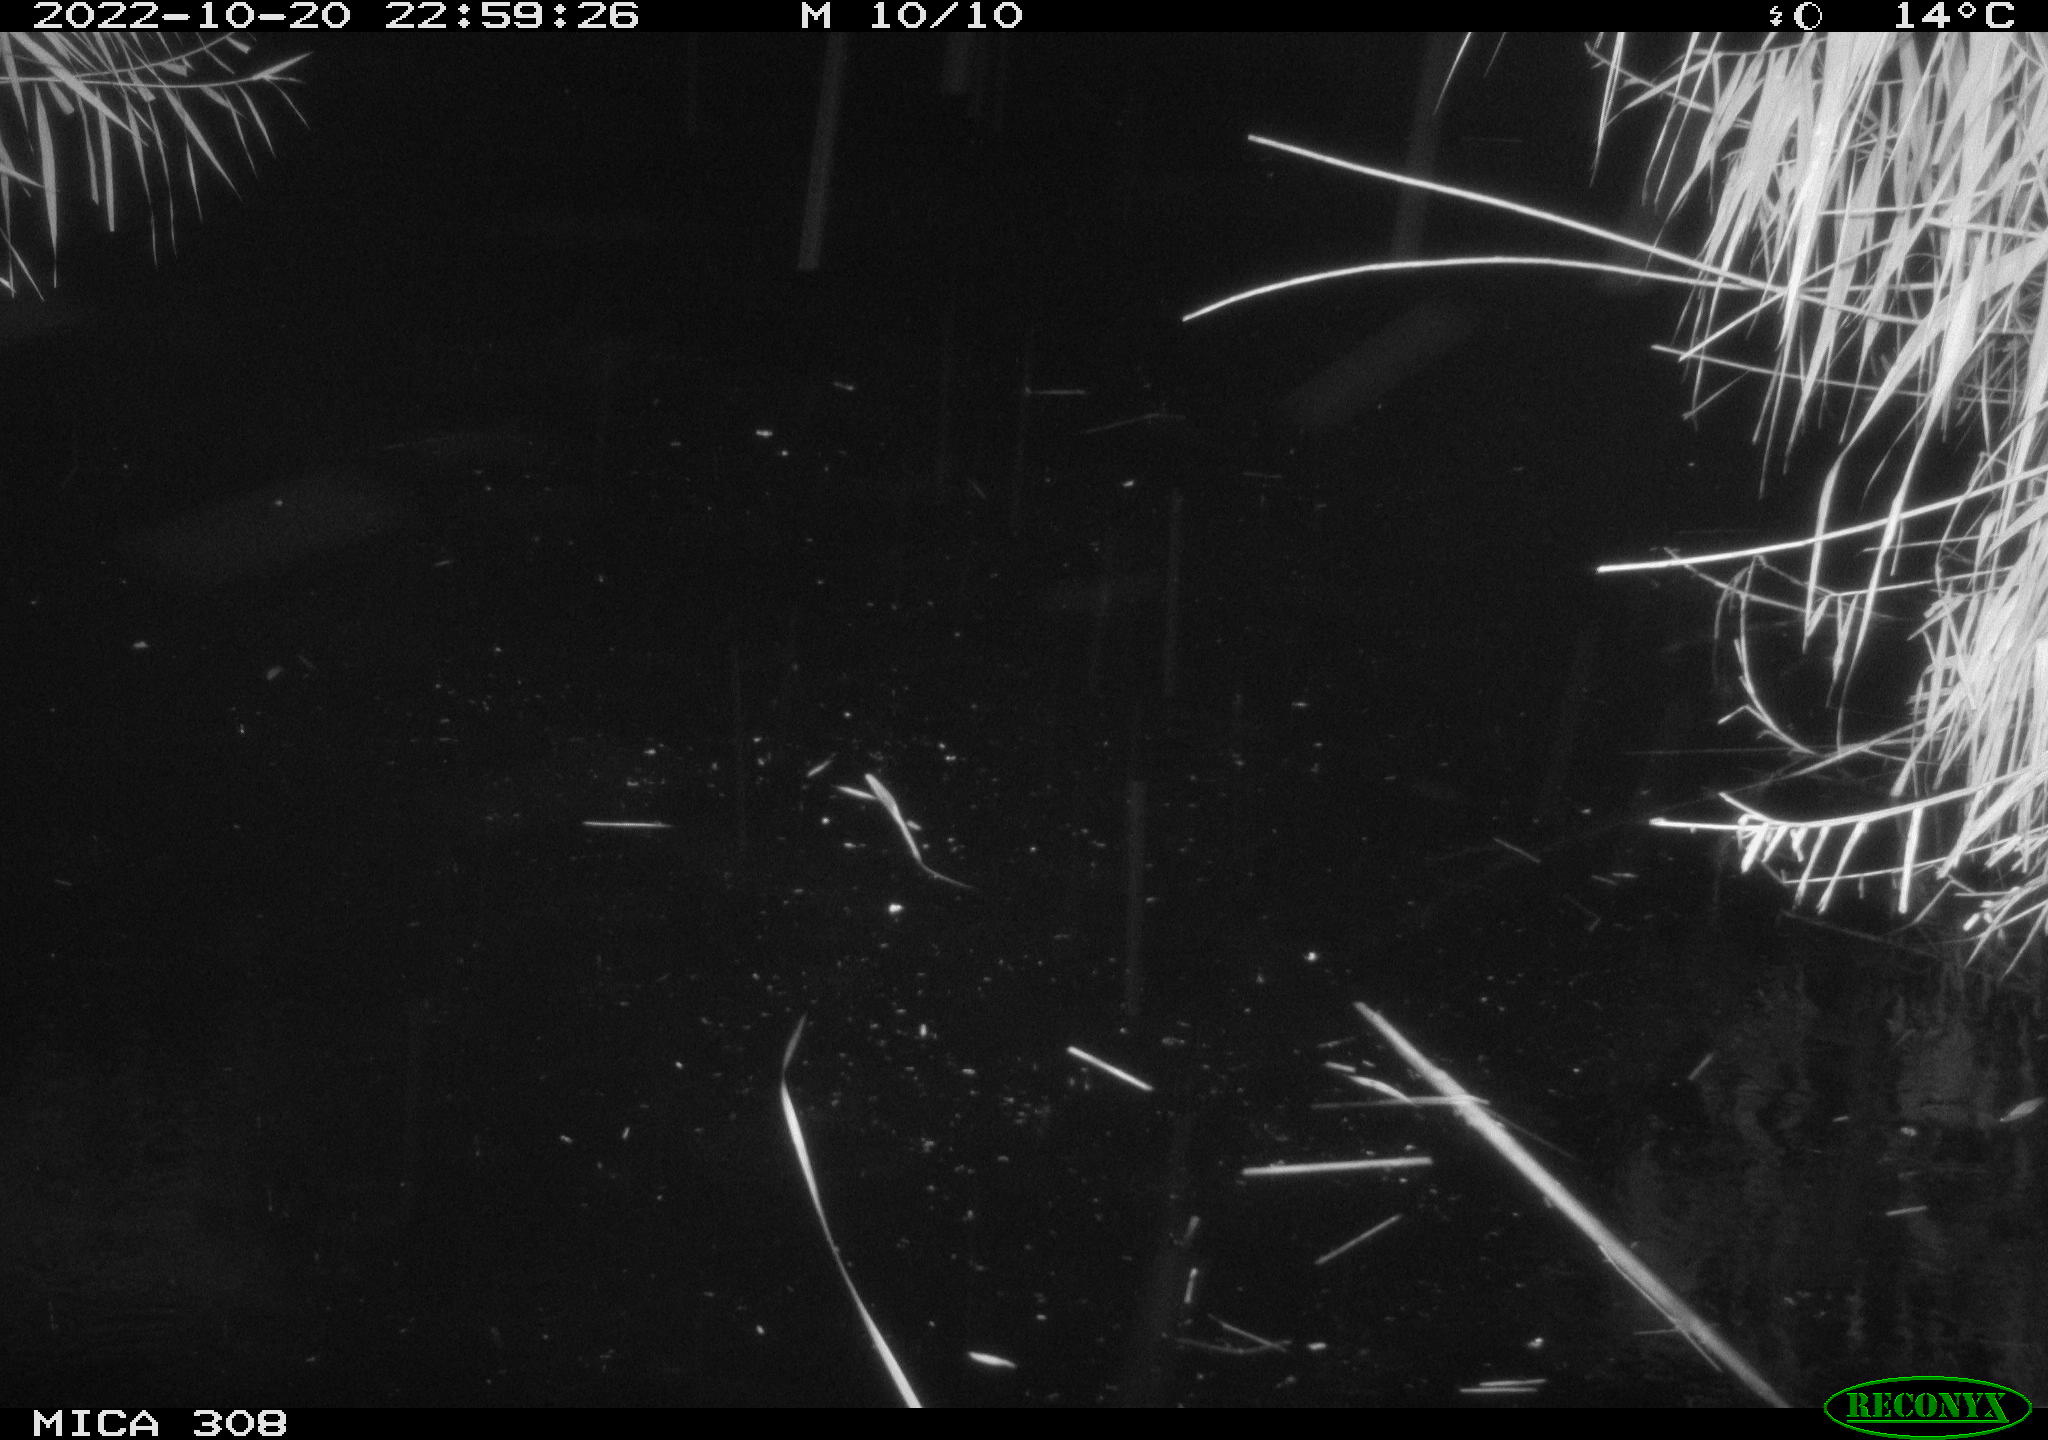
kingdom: Animalia
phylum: Chordata
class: Mammalia
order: Rodentia
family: Muridae
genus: Rattus
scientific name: Rattus norvegicus
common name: Brown rat
